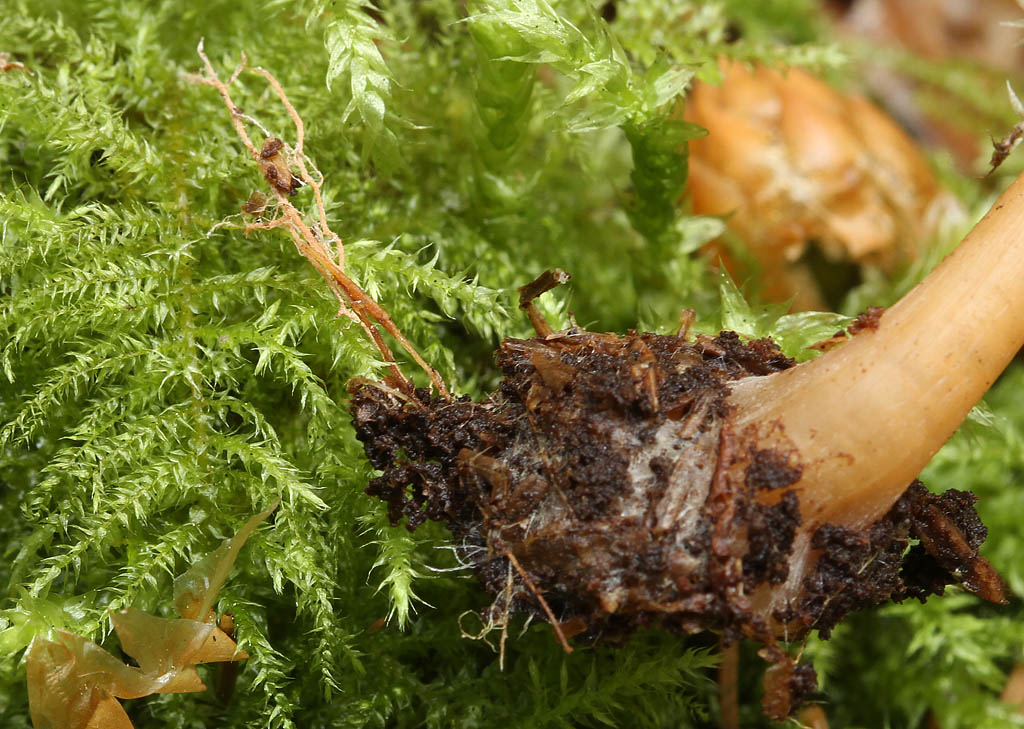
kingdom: Fungi
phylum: Basidiomycota
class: Agaricomycetes
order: Agaricales
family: Omphalotaceae
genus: Gymnopus
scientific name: Gymnopus aquosus
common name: bleg fladhat
